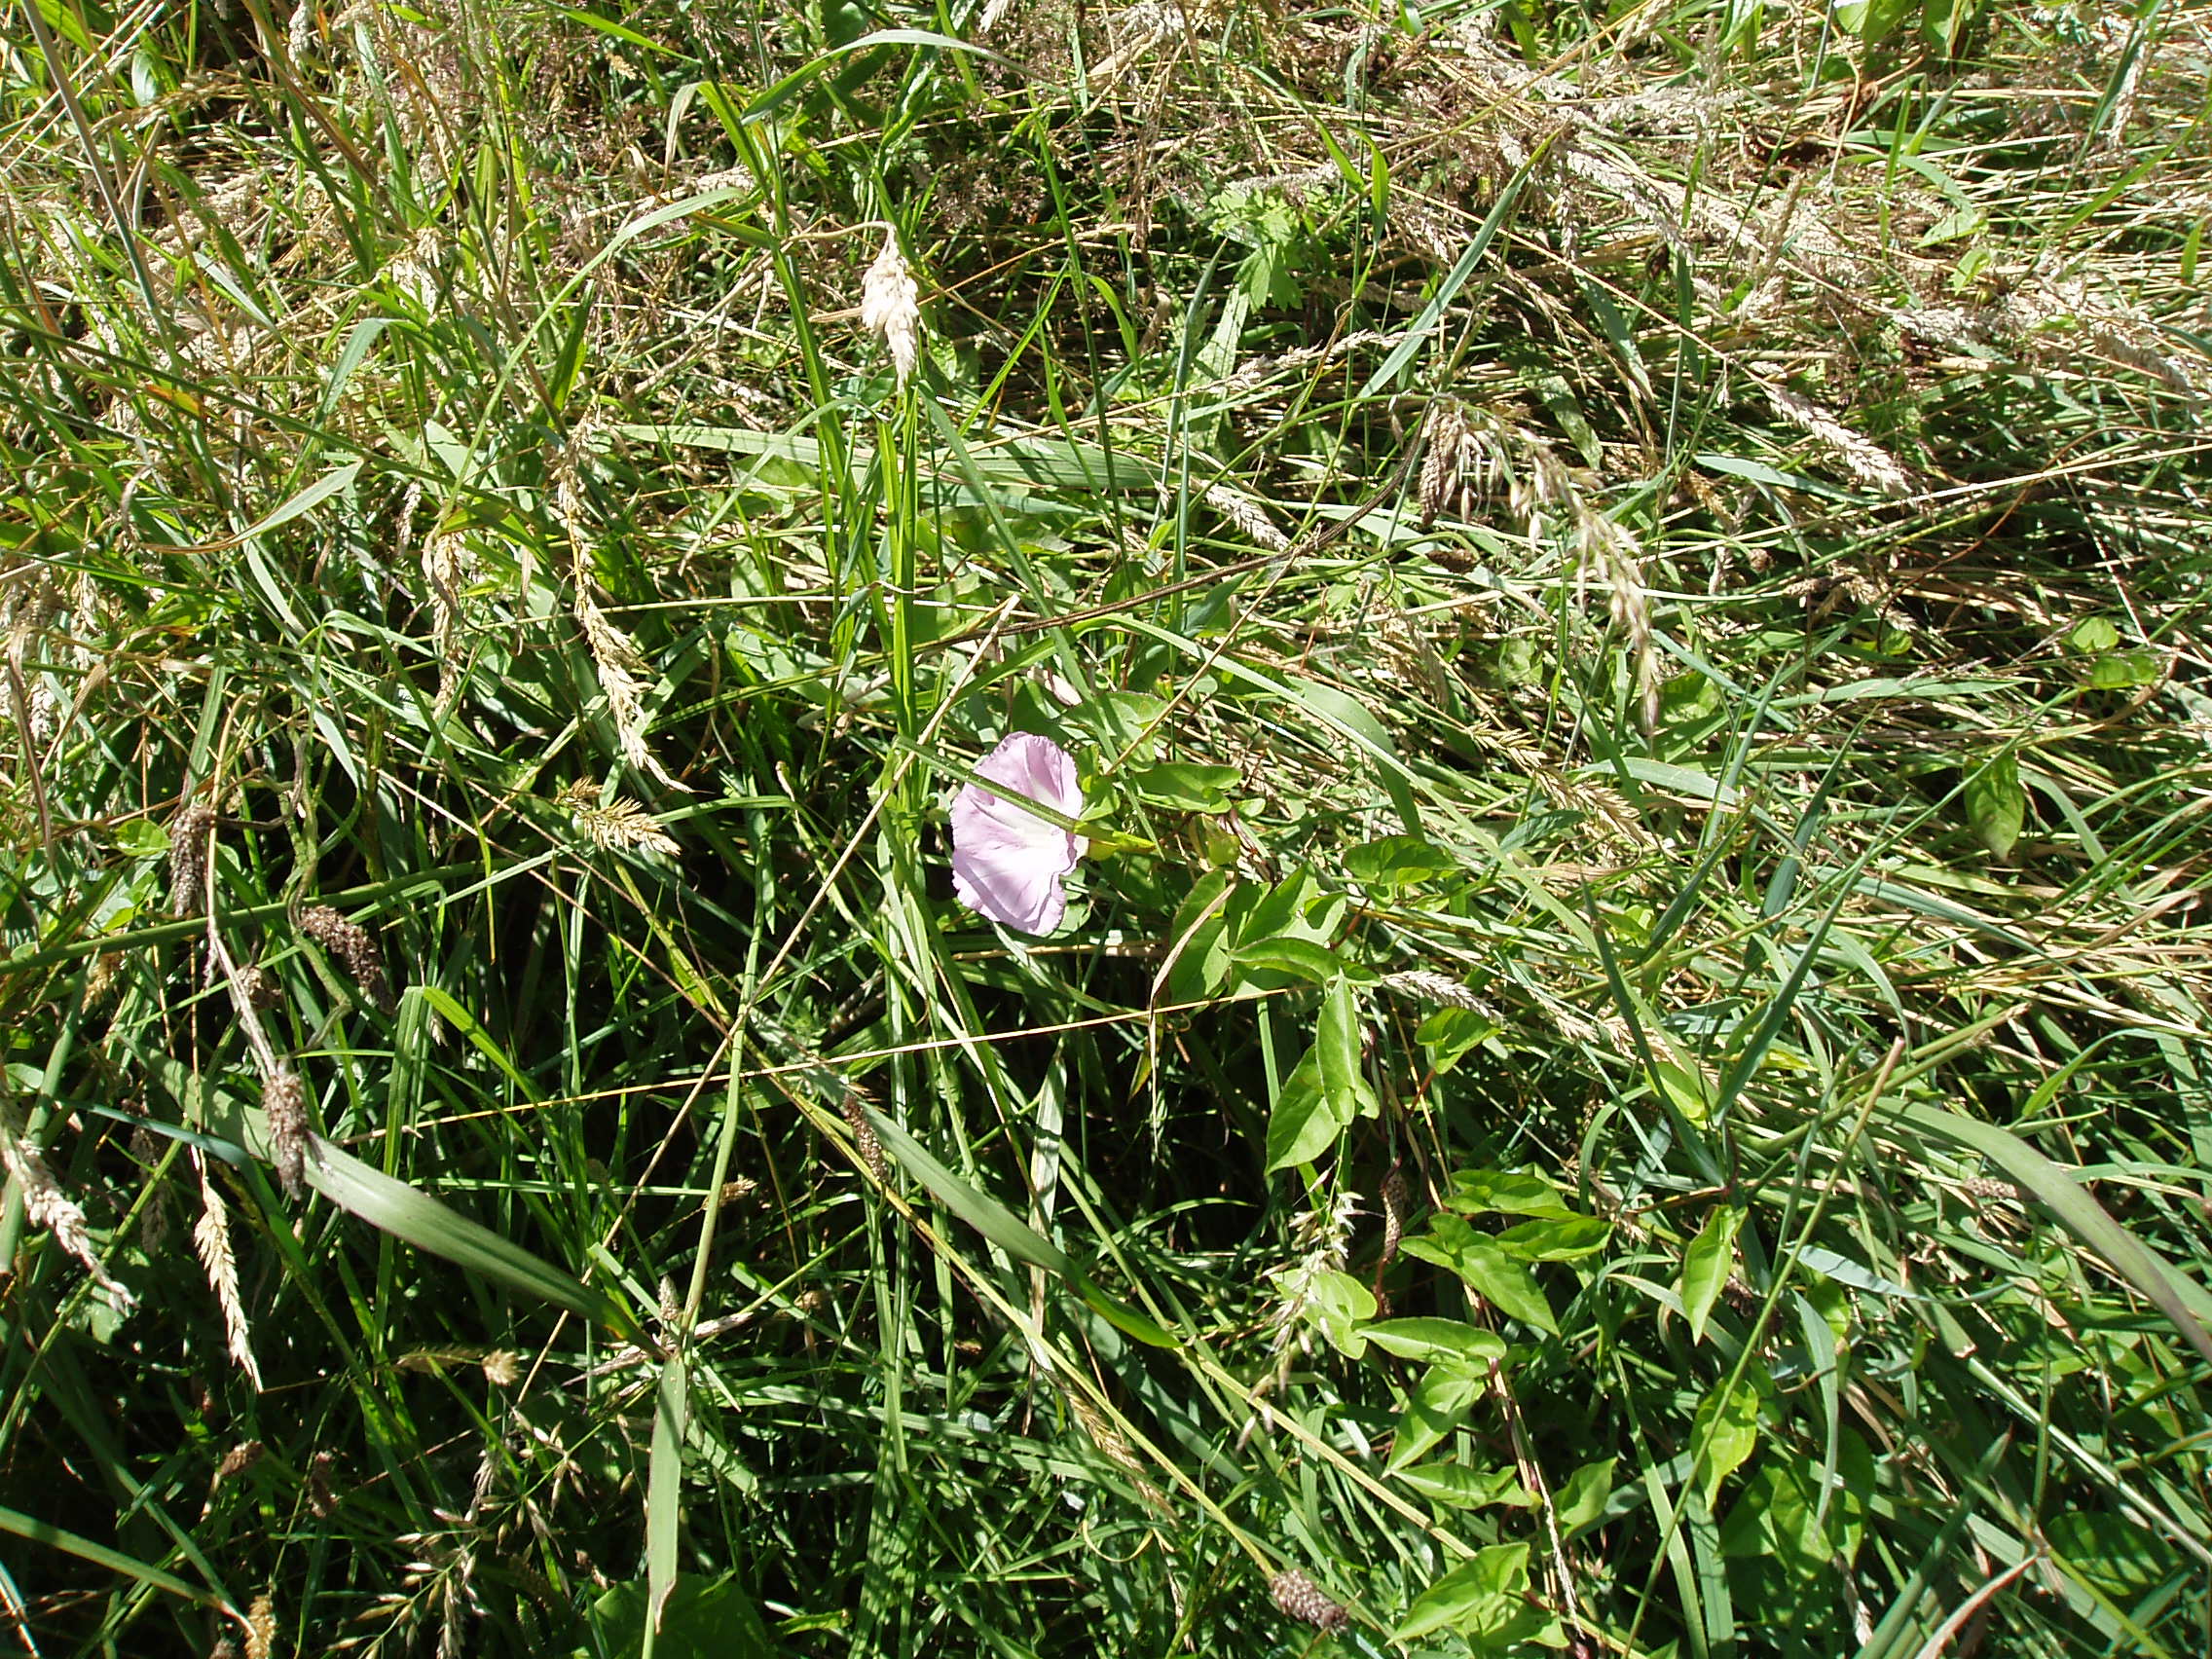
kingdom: Plantae
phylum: Tracheophyta
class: Magnoliopsida
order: Solanales
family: Convolvulaceae
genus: Calystegia
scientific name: Calystegia sepium
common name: Hedge bindweed
